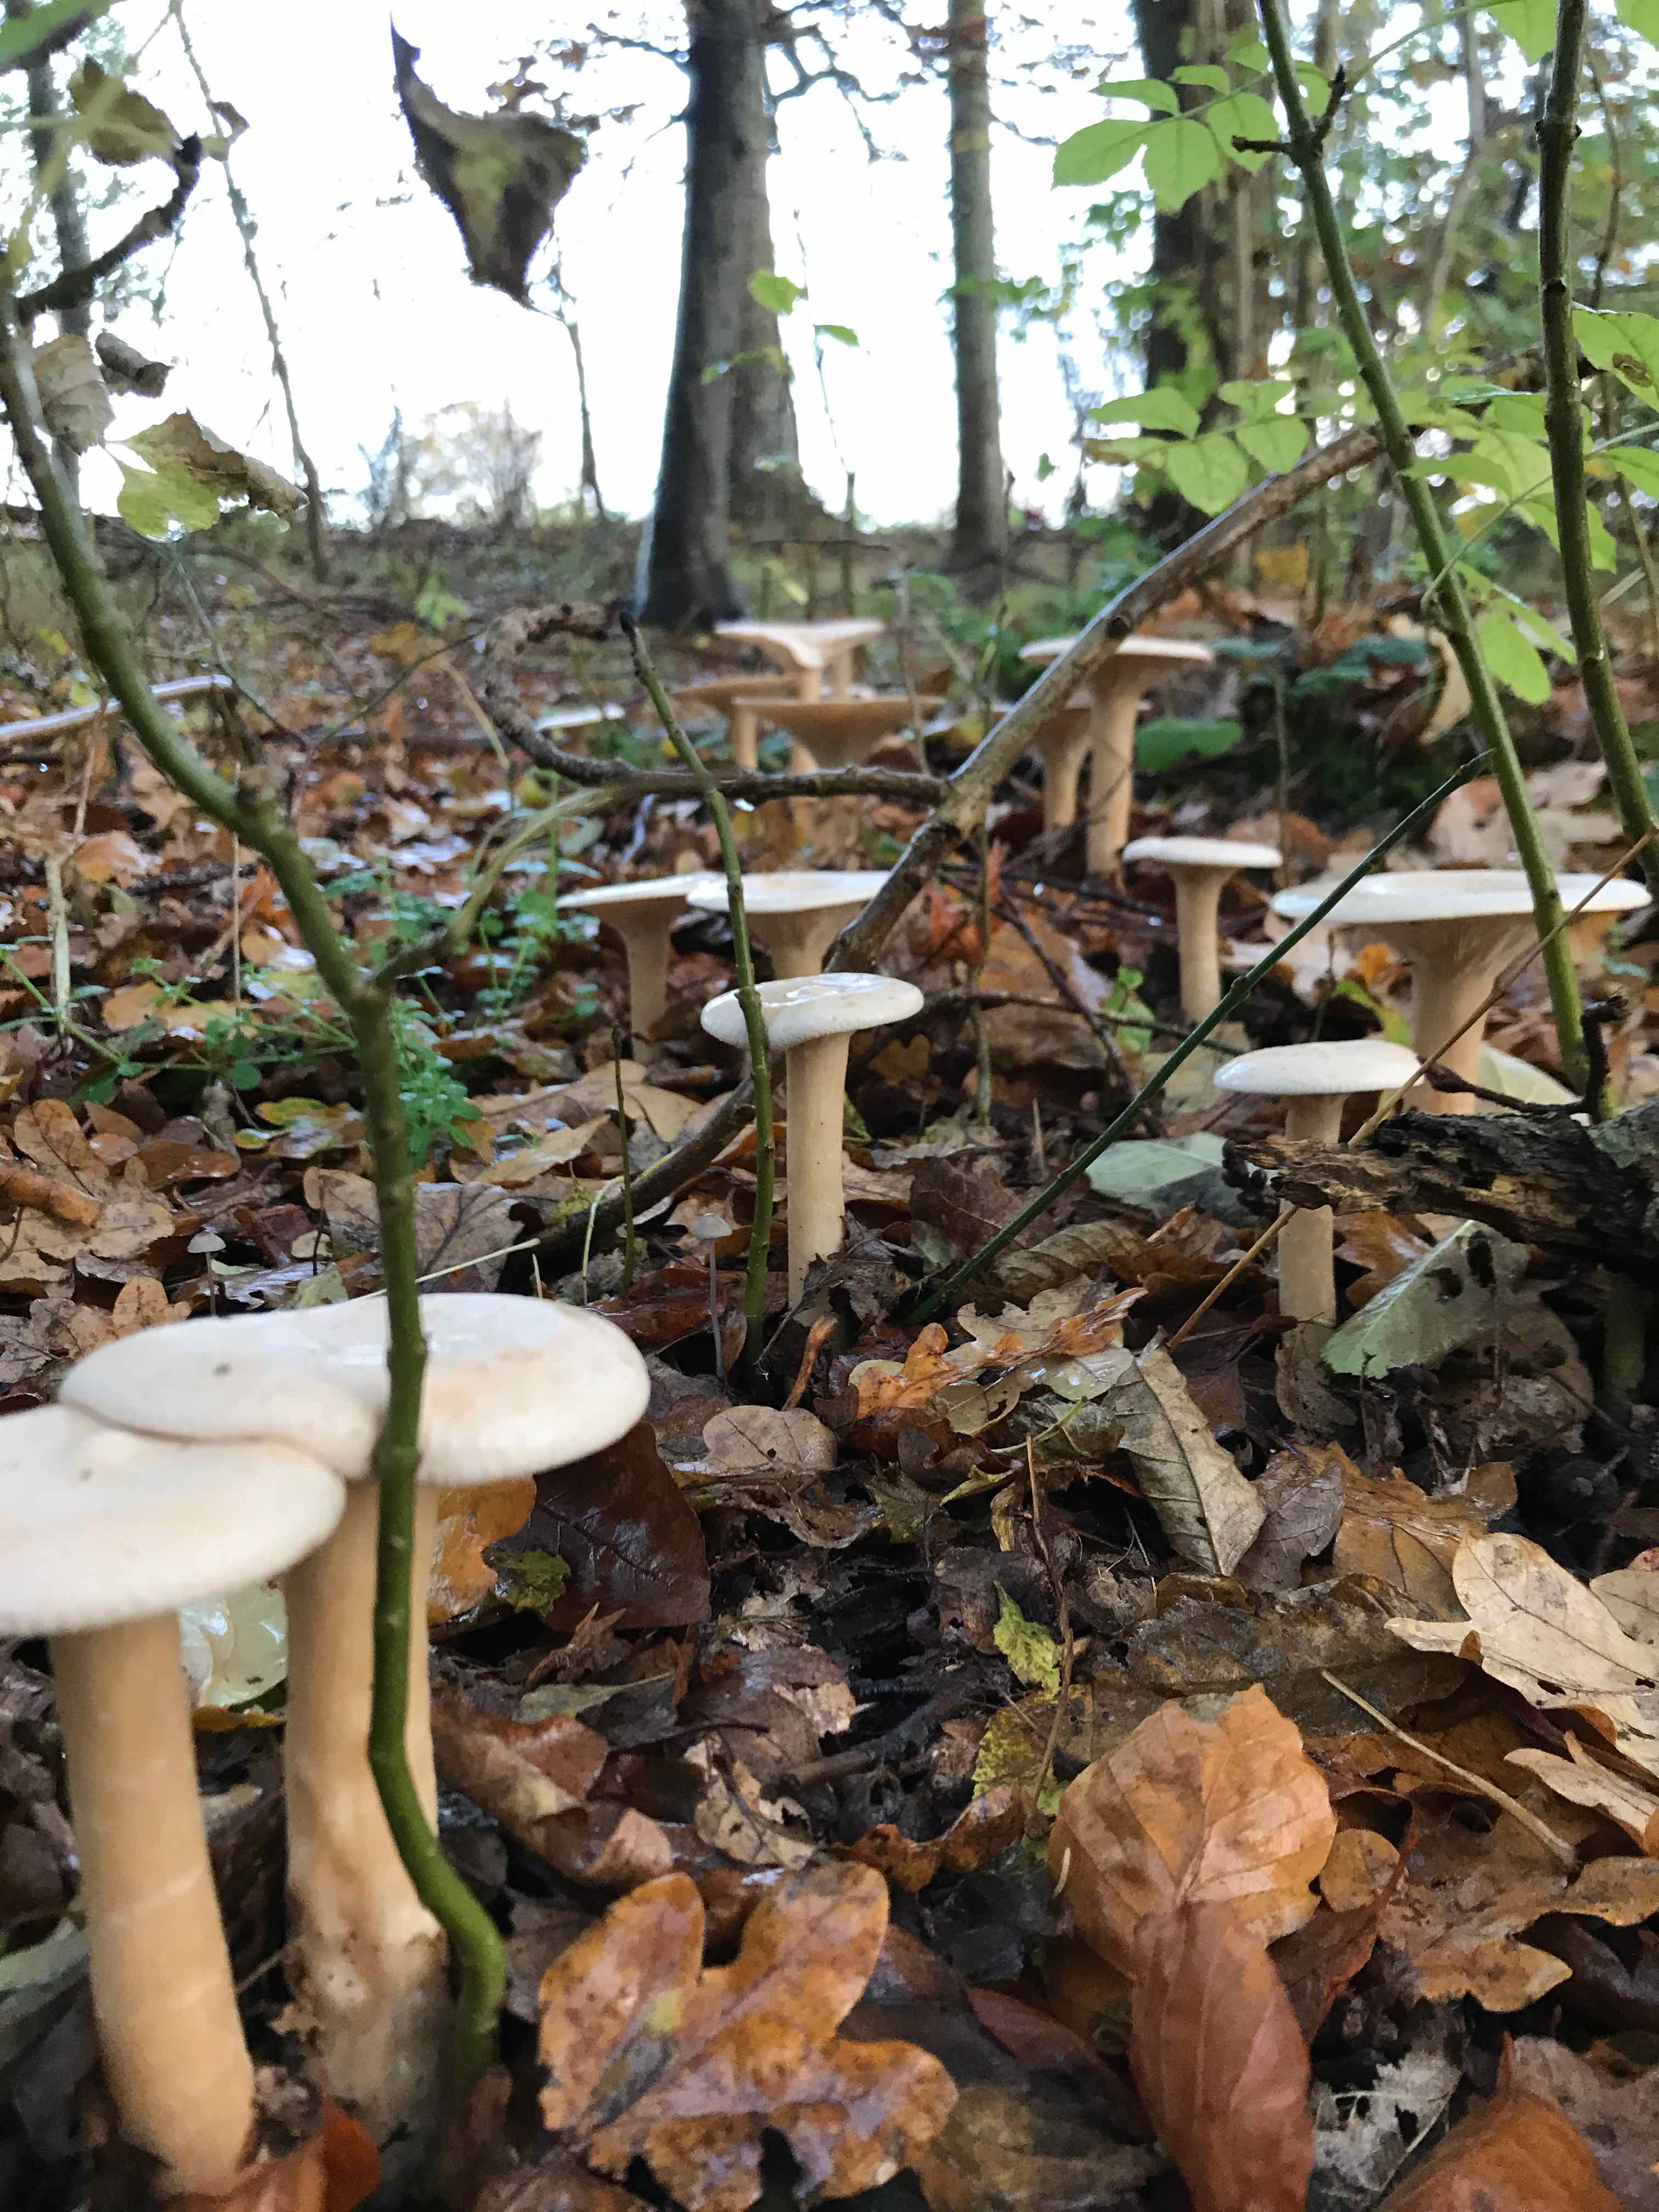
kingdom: Fungi
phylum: Basidiomycota
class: Agaricomycetes
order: Agaricales
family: Tricholomataceae
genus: Infundibulicybe
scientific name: Infundibulicybe geotropa
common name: stor tragthat
